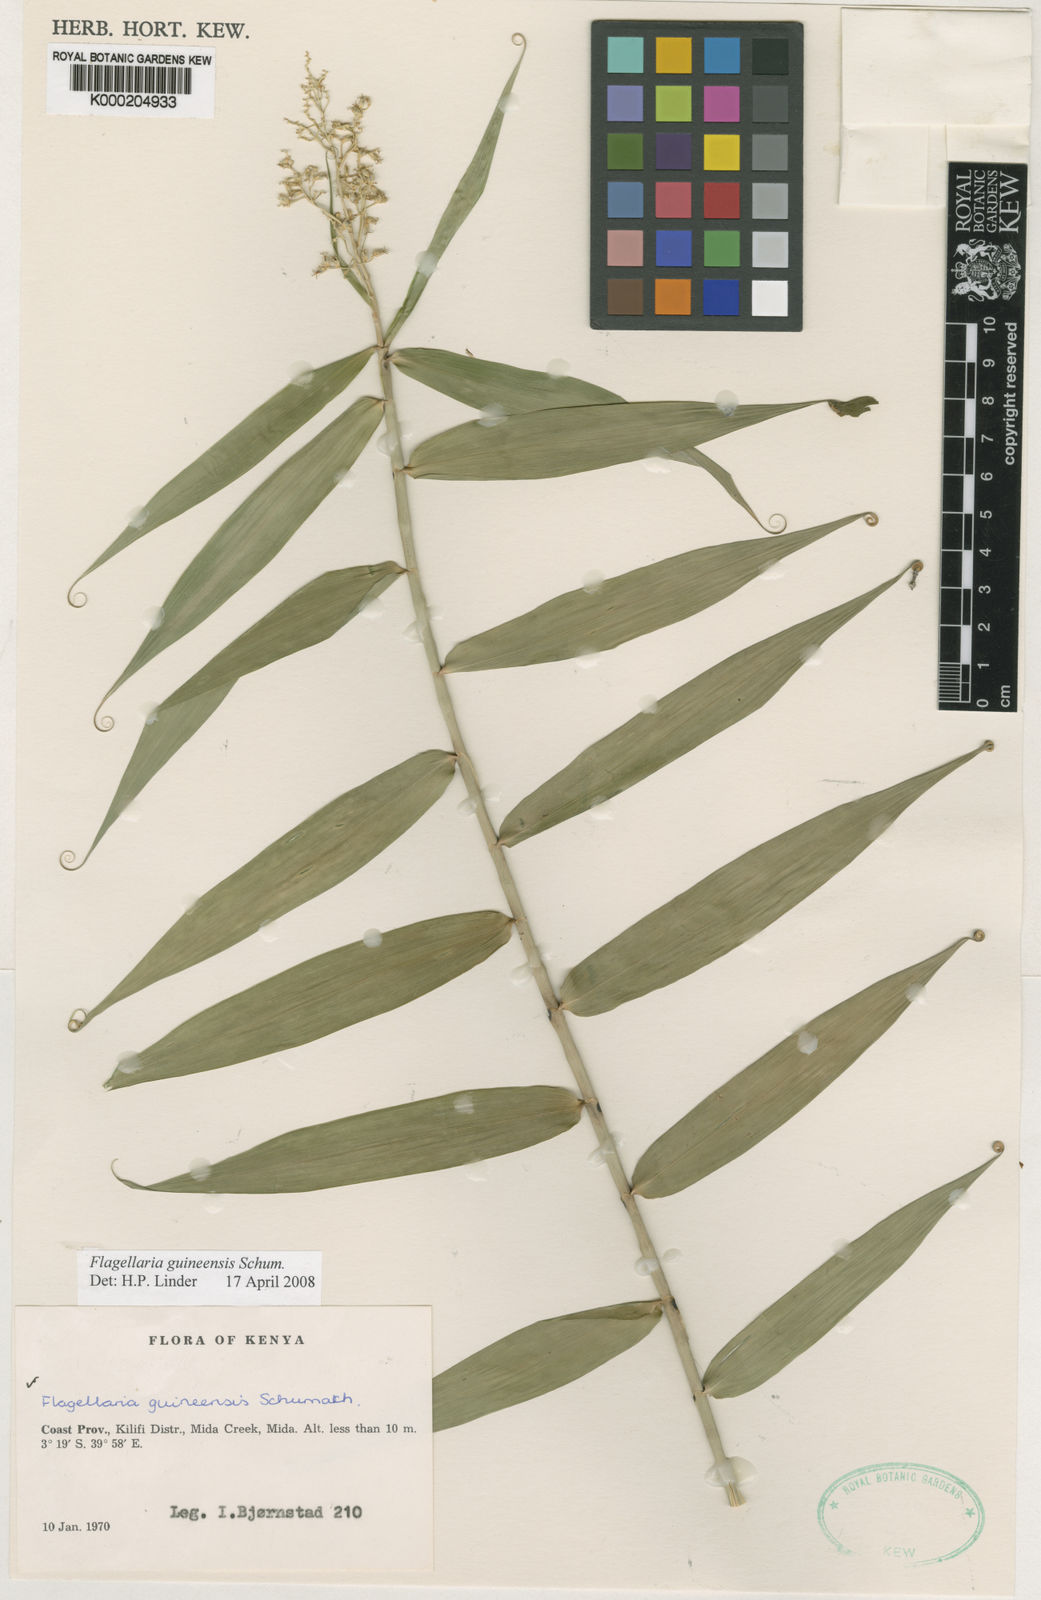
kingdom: Plantae
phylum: Tracheophyta
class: Liliopsida
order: Poales
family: Flagellariaceae
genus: Flagellaria
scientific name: Flagellaria guineensis
